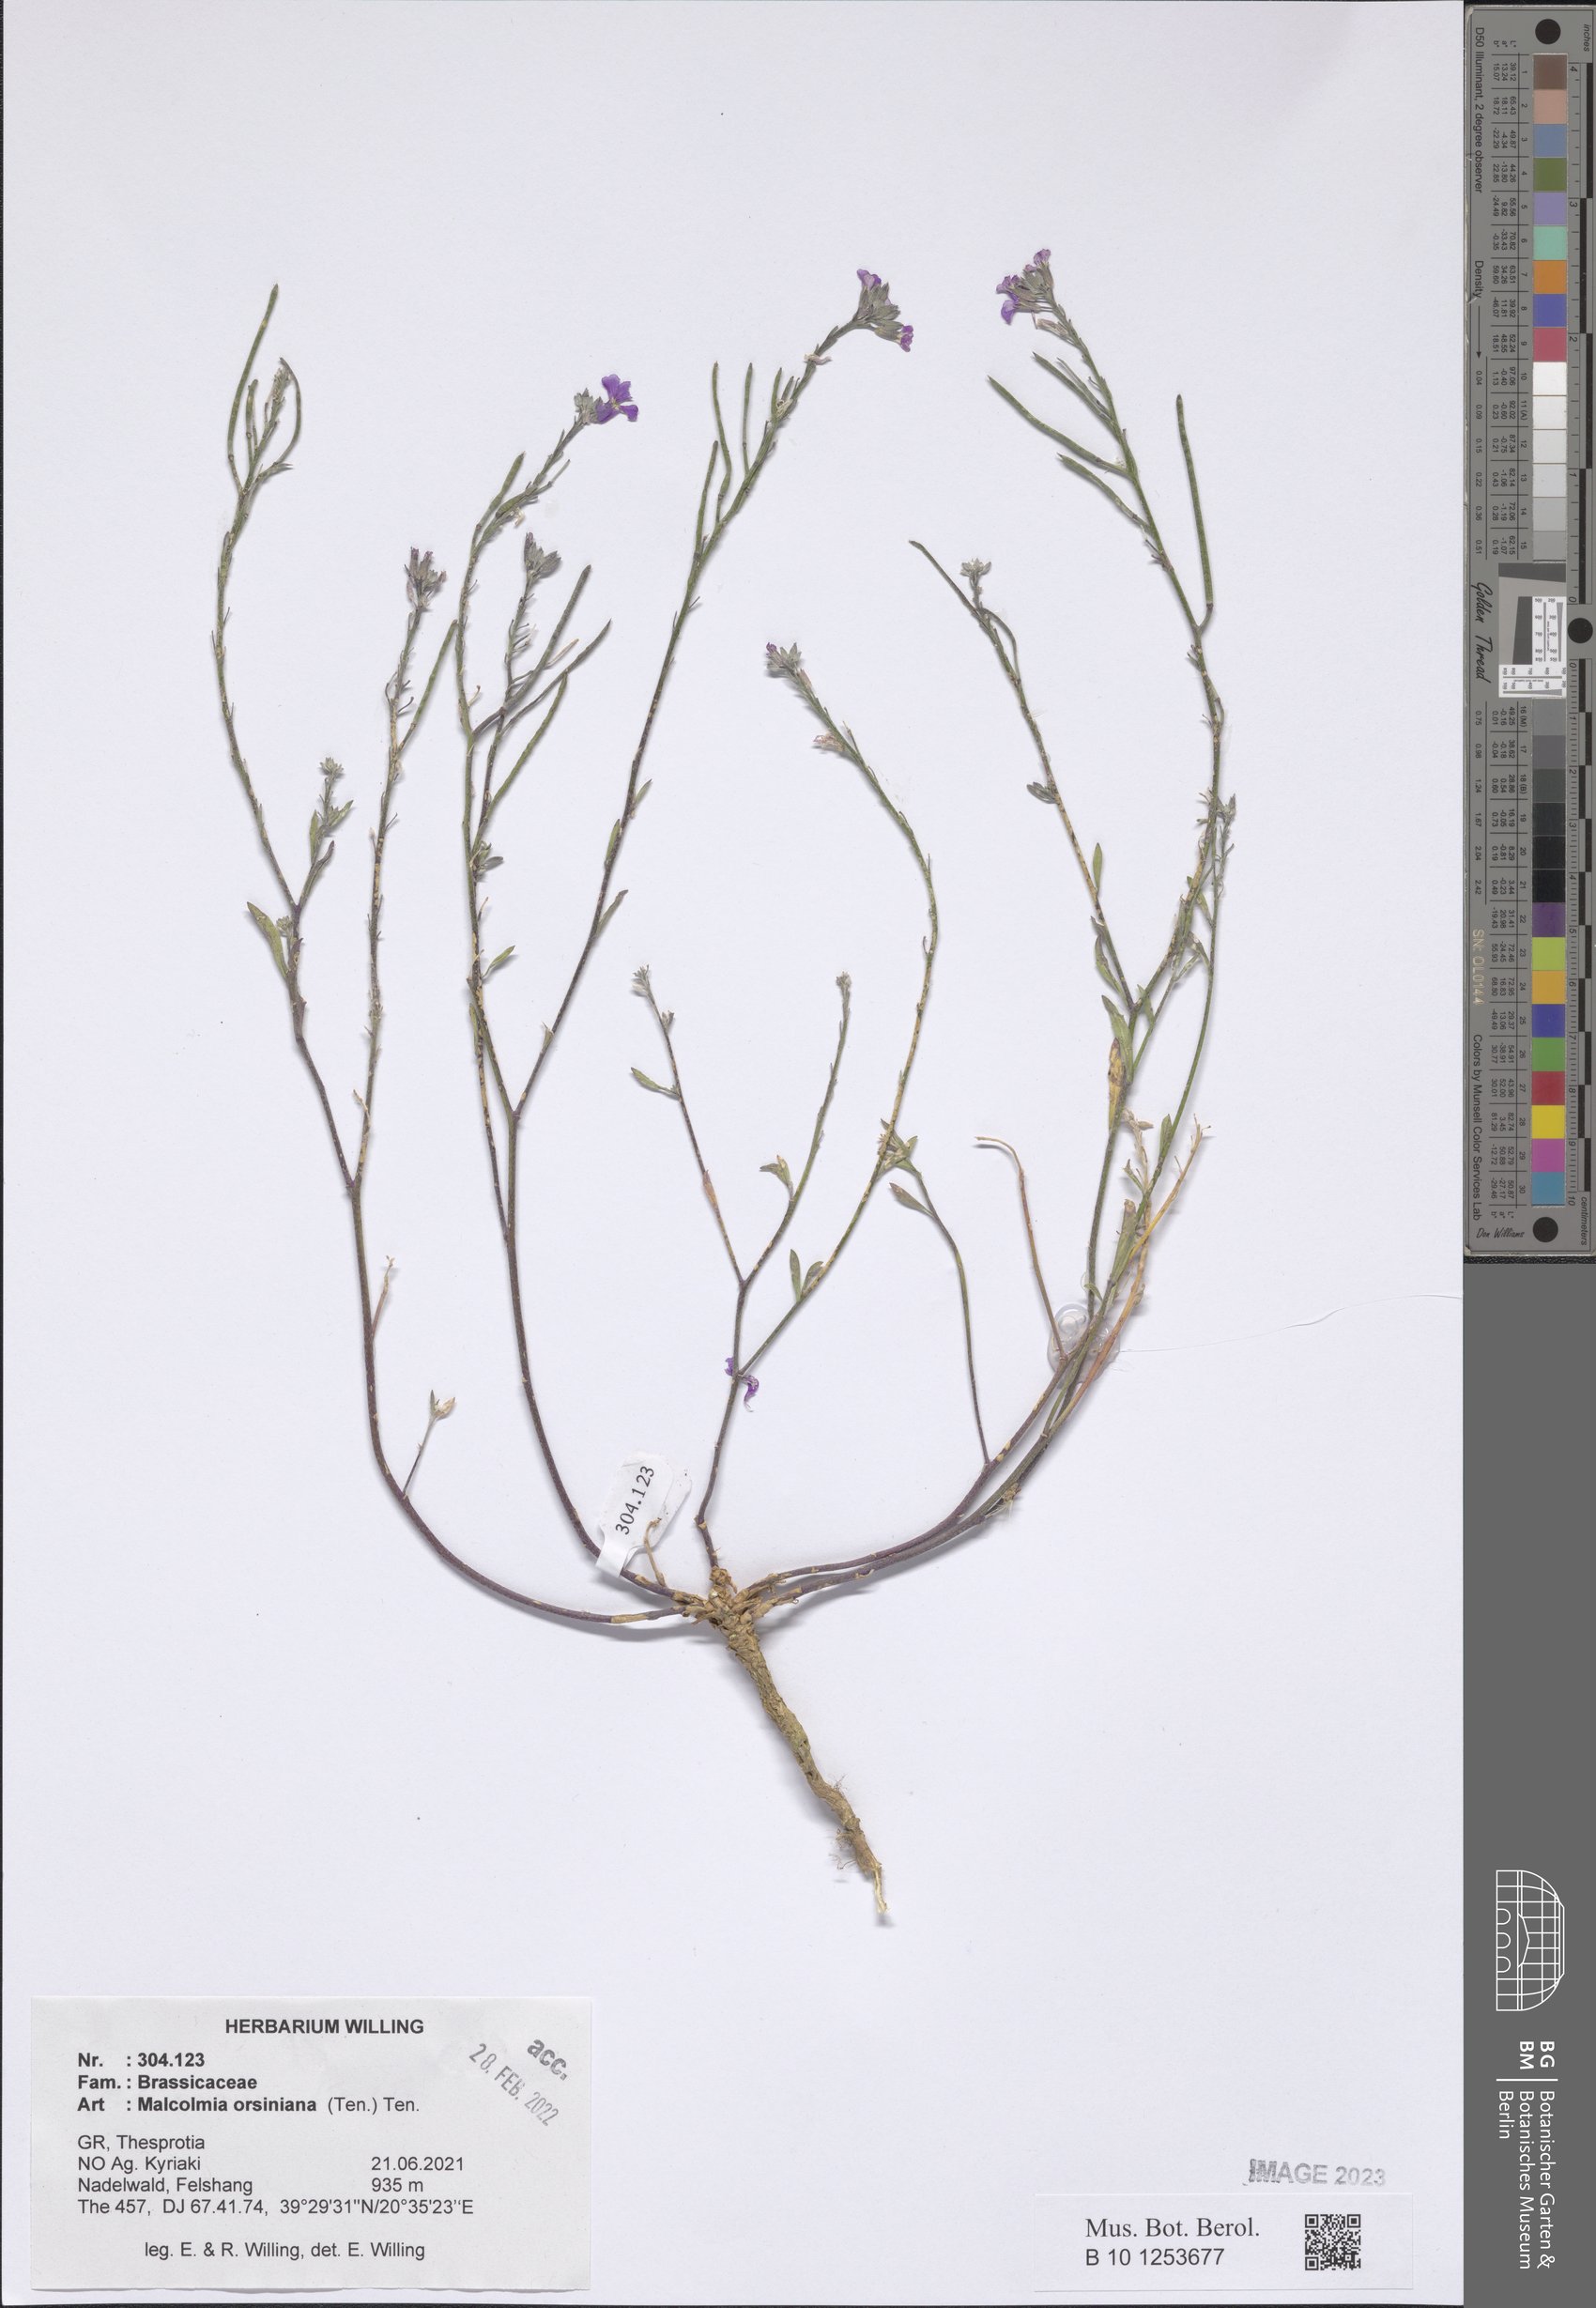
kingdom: Plantae
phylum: Tracheophyta
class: Magnoliopsida
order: Brassicales
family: Brassicaceae
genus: Malcolmia
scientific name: Malcolmia orsiniana
